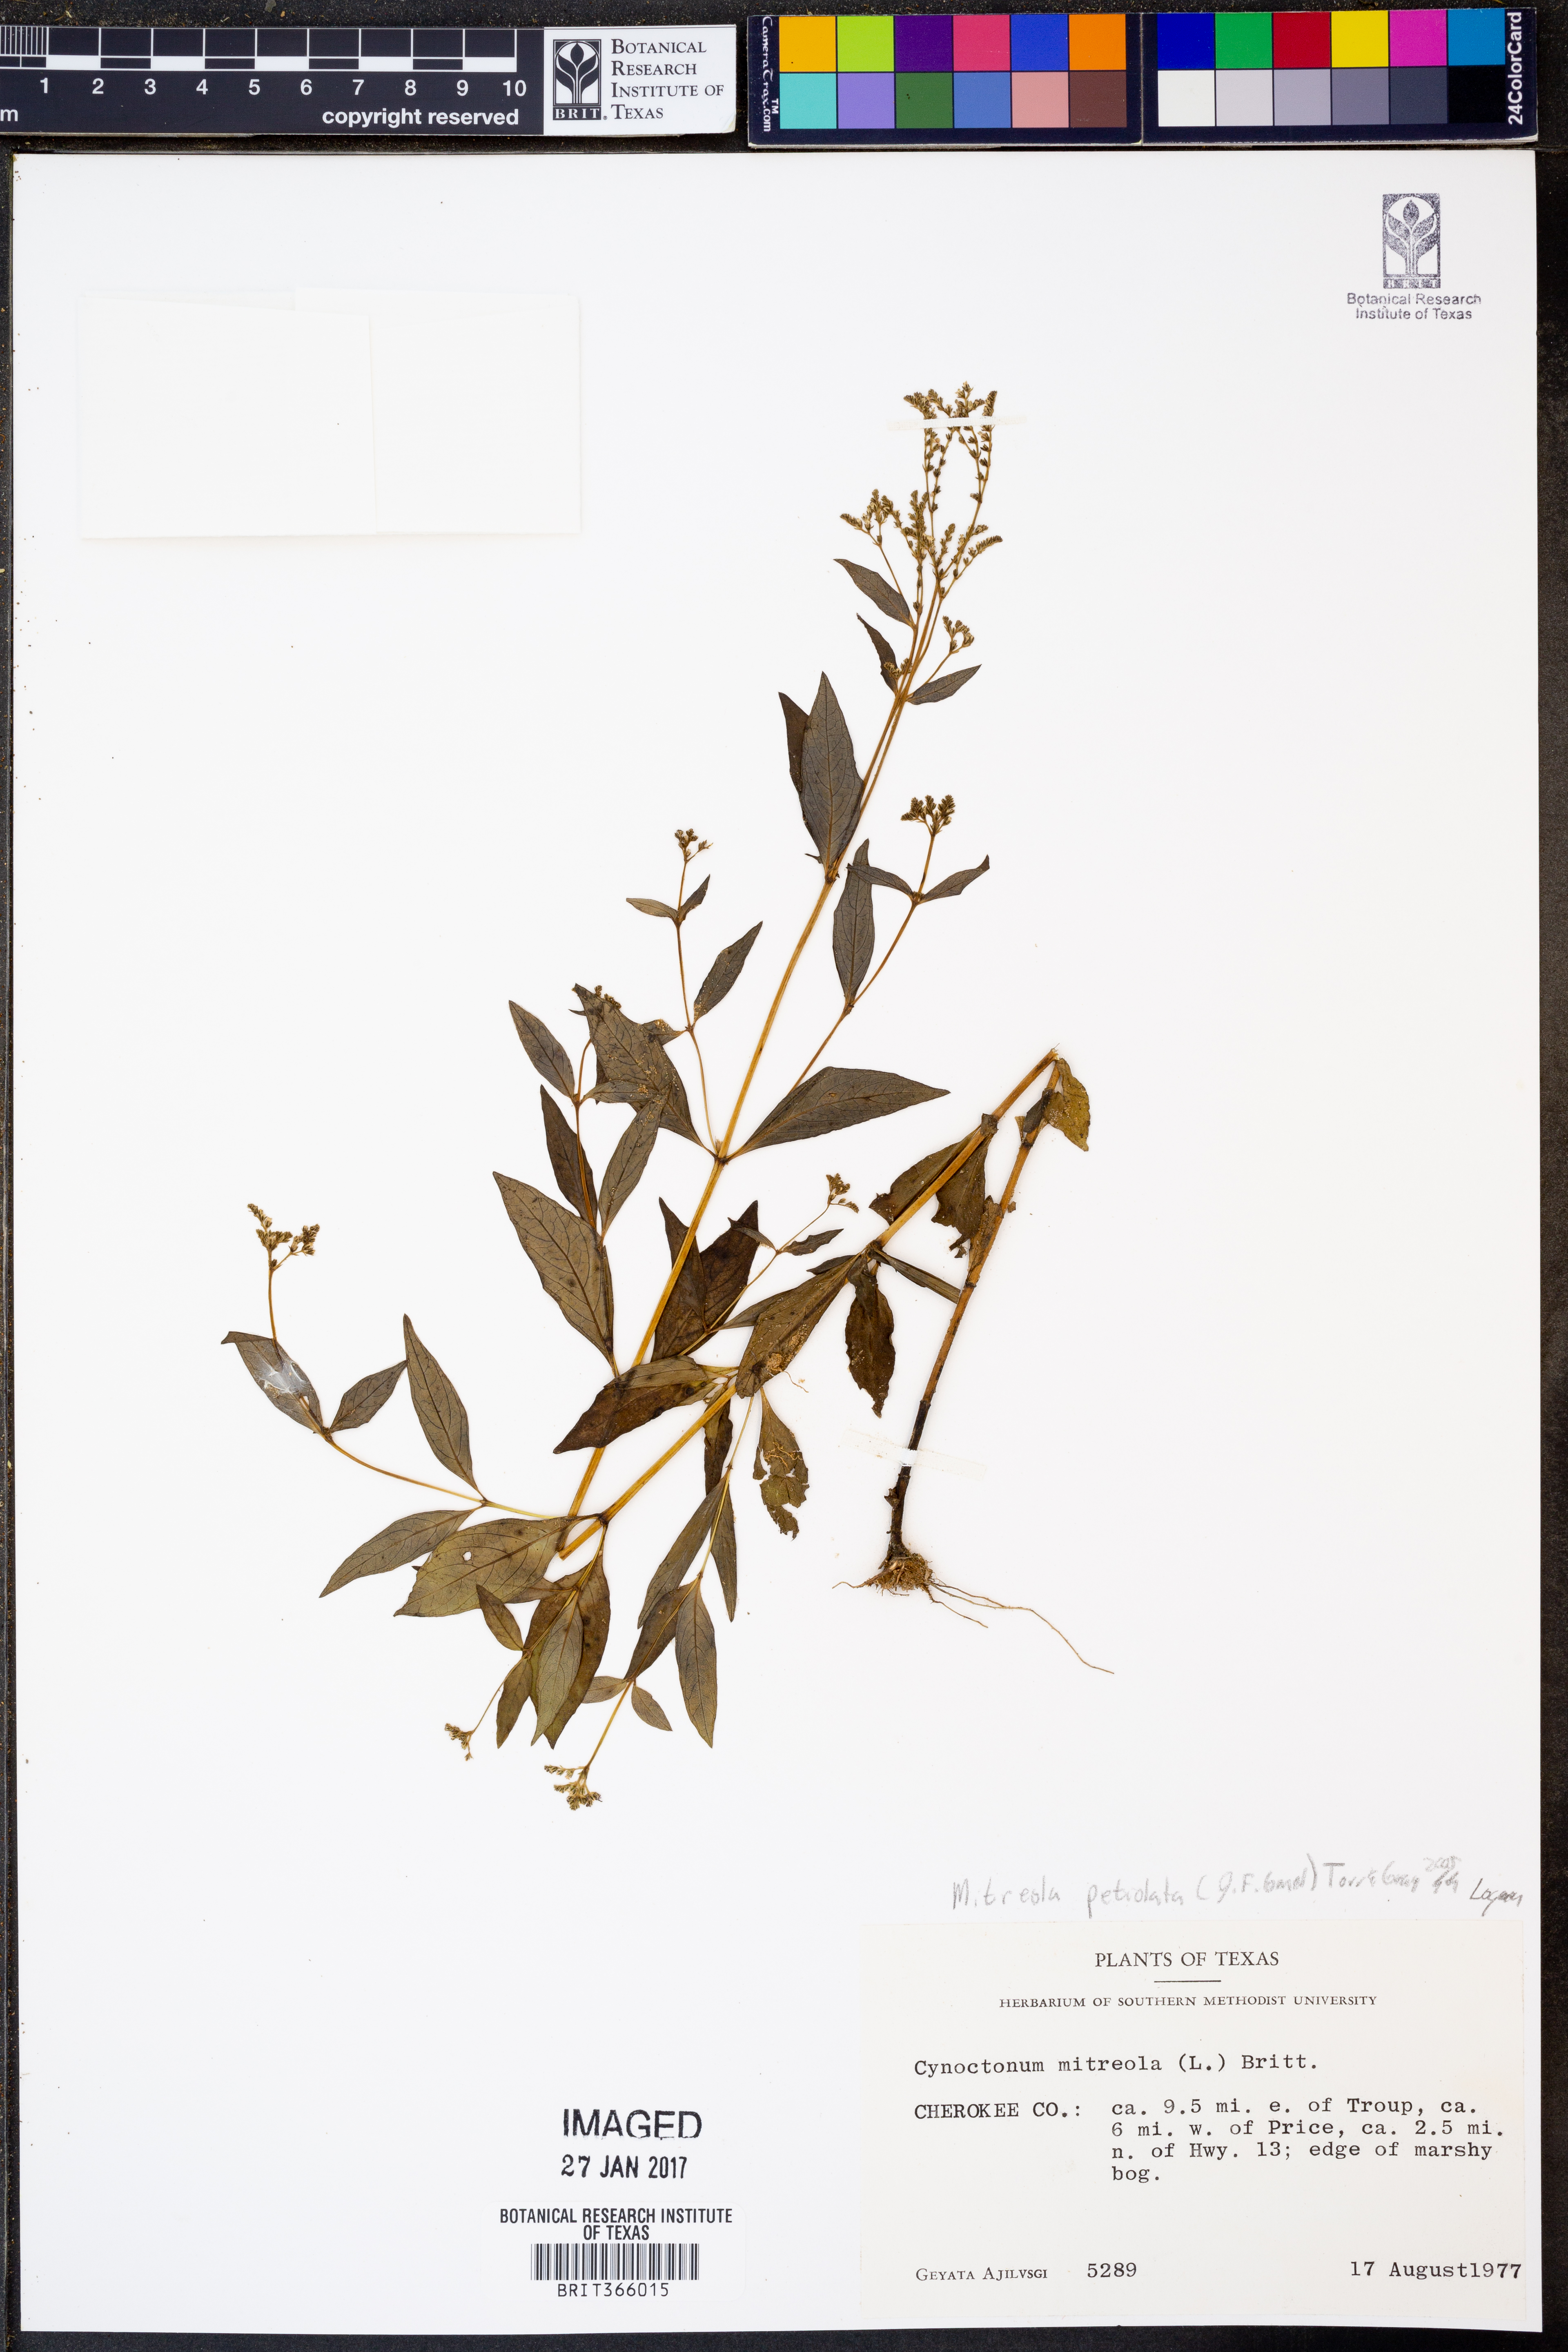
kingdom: Plantae
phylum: Tracheophyta
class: Magnoliopsida
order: Gentianales
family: Loganiaceae
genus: Mitreola
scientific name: Mitreola petiolata
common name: Lax hornpod
